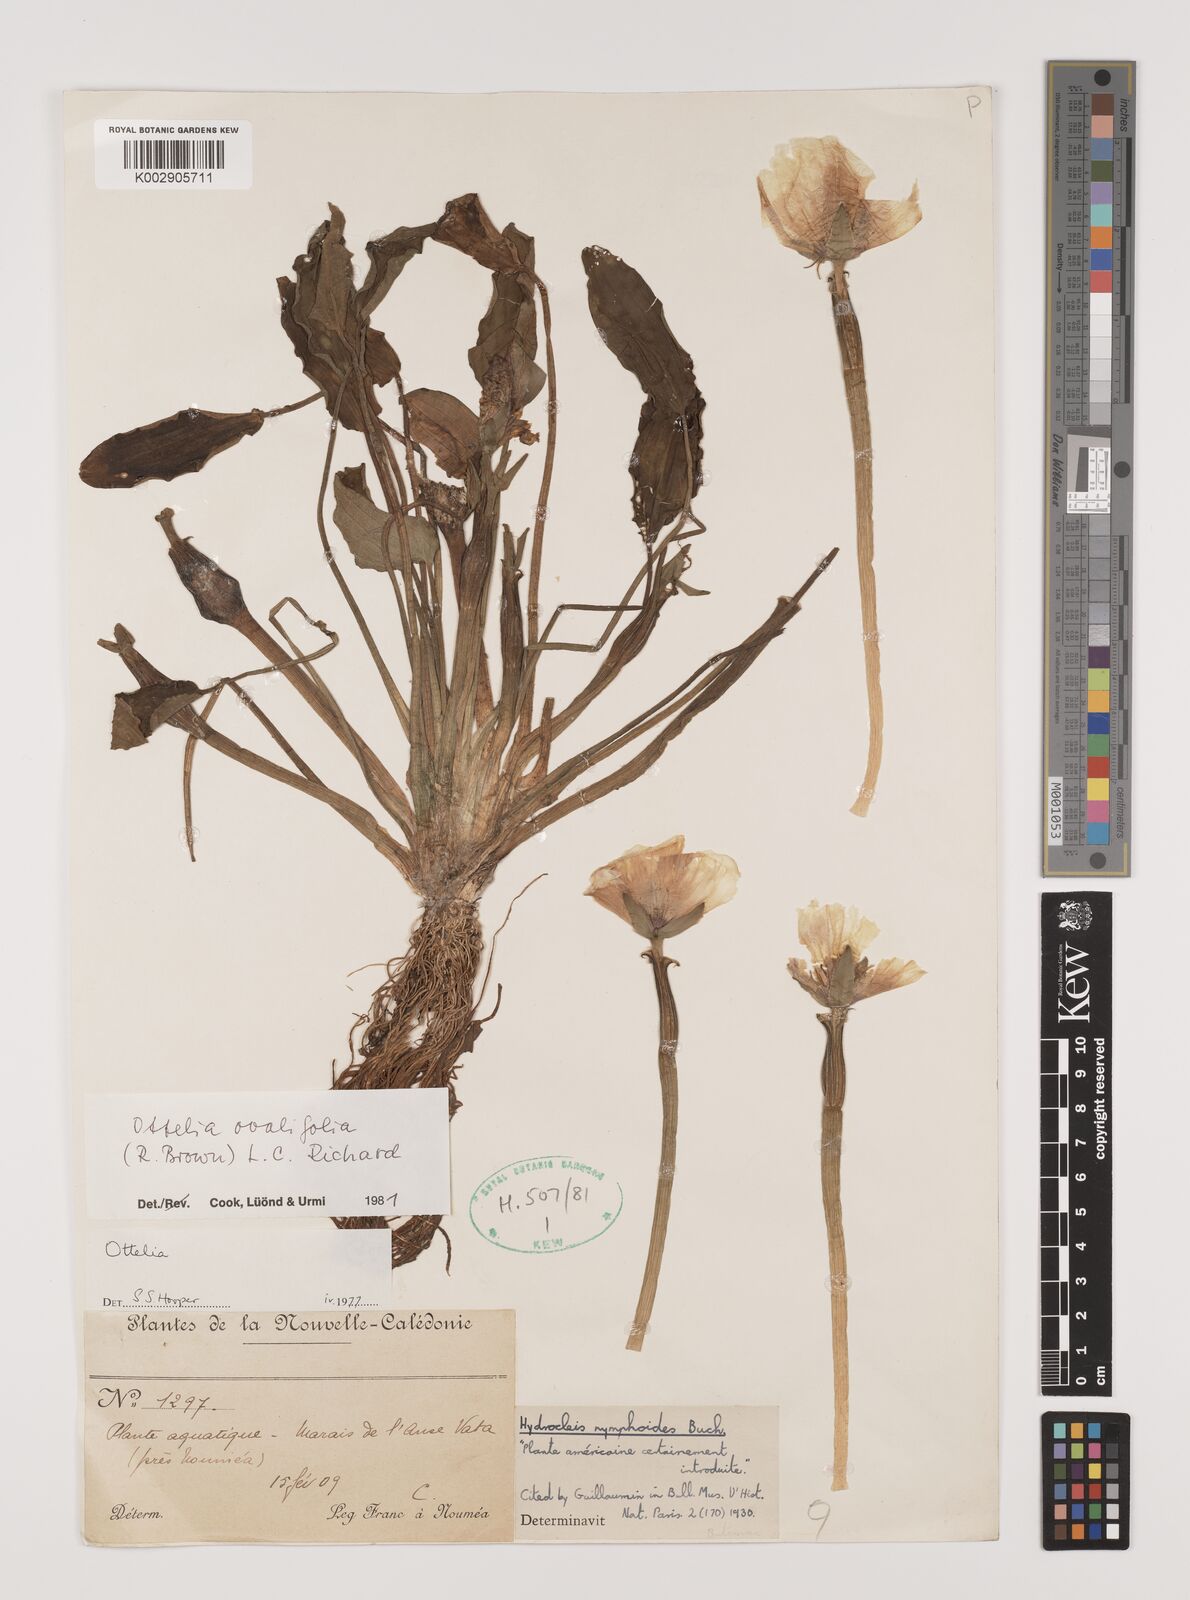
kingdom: Plantae
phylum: Tracheophyta
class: Liliopsida
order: Alismatales
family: Hydrocharitaceae
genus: Ottelia
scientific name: Ottelia ovalifolia
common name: Swamp-lily
